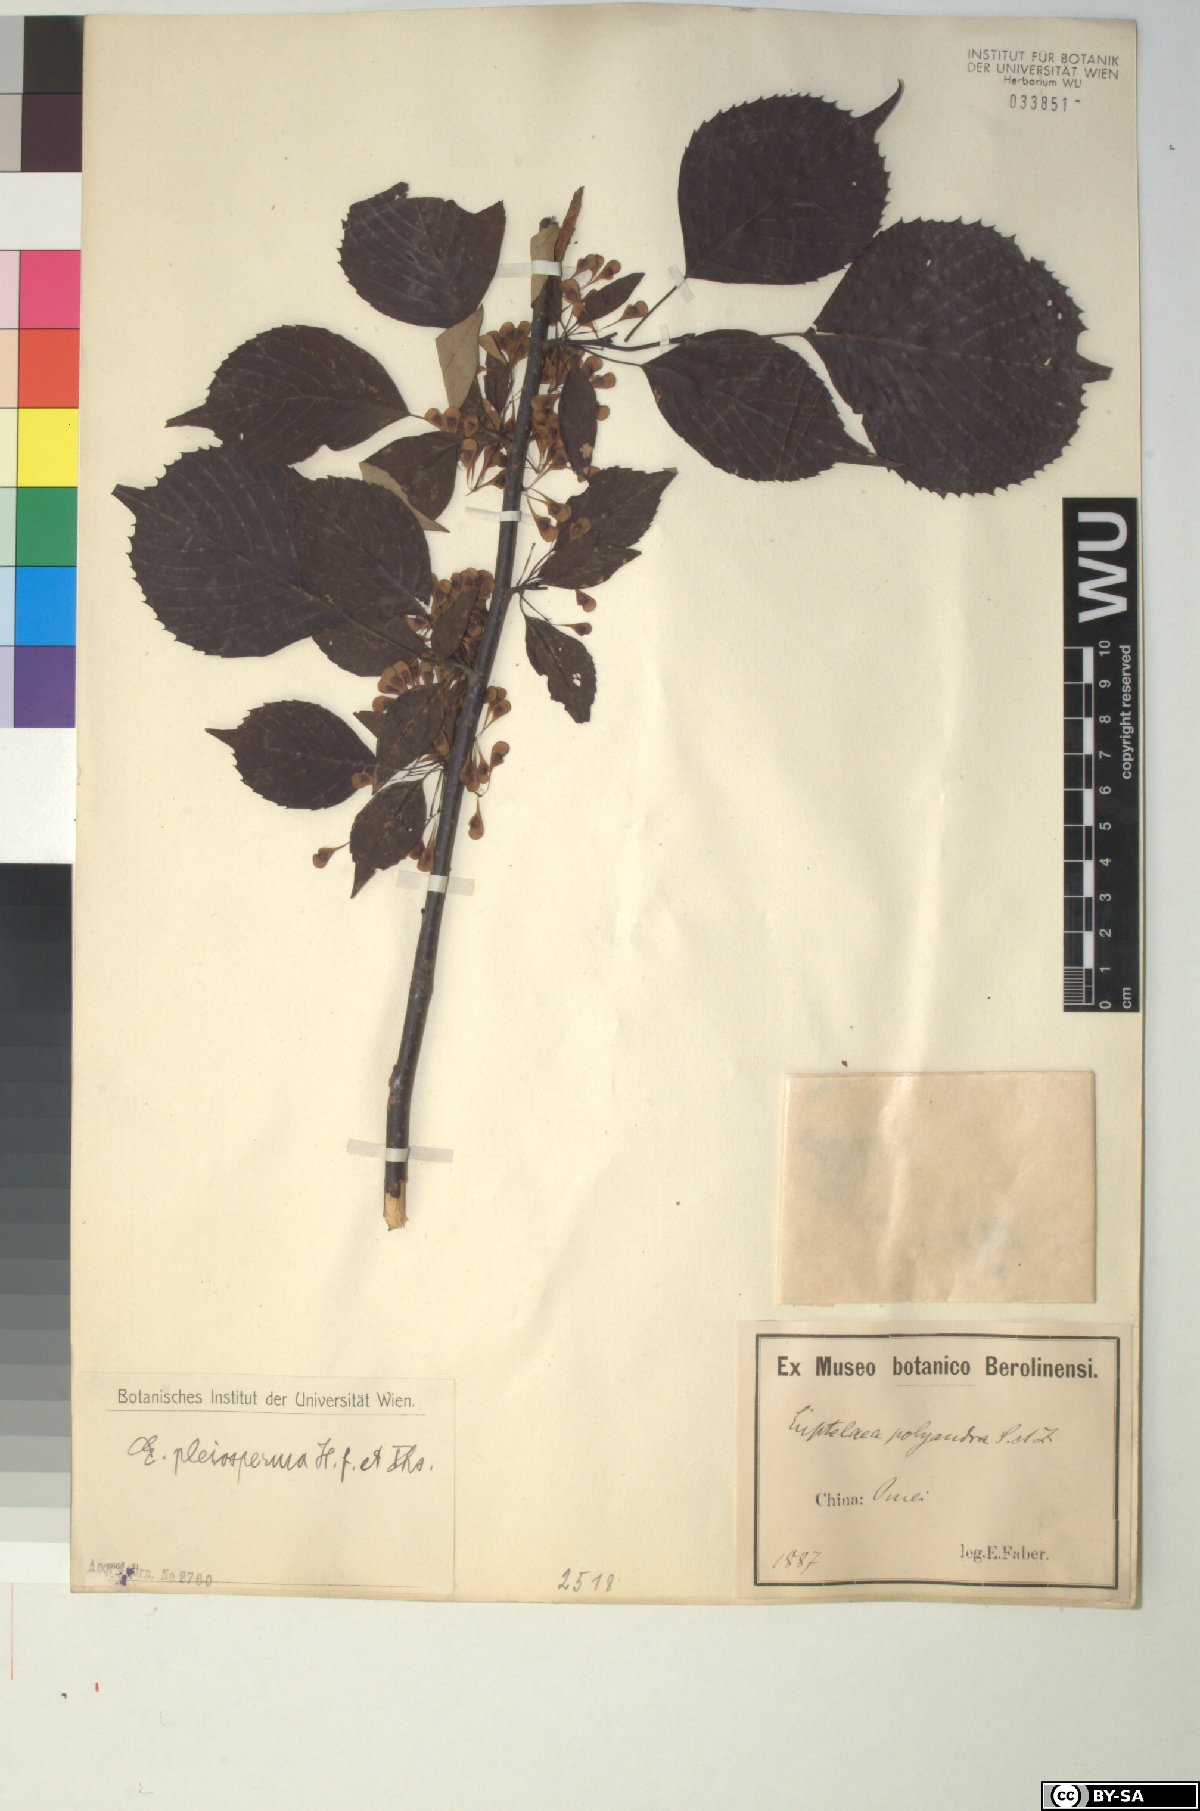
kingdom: Plantae
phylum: Tracheophyta
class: Magnoliopsida
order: Ranunculales
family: Eupteleaceae
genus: Euptelea
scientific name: Euptelea pleiosperma
